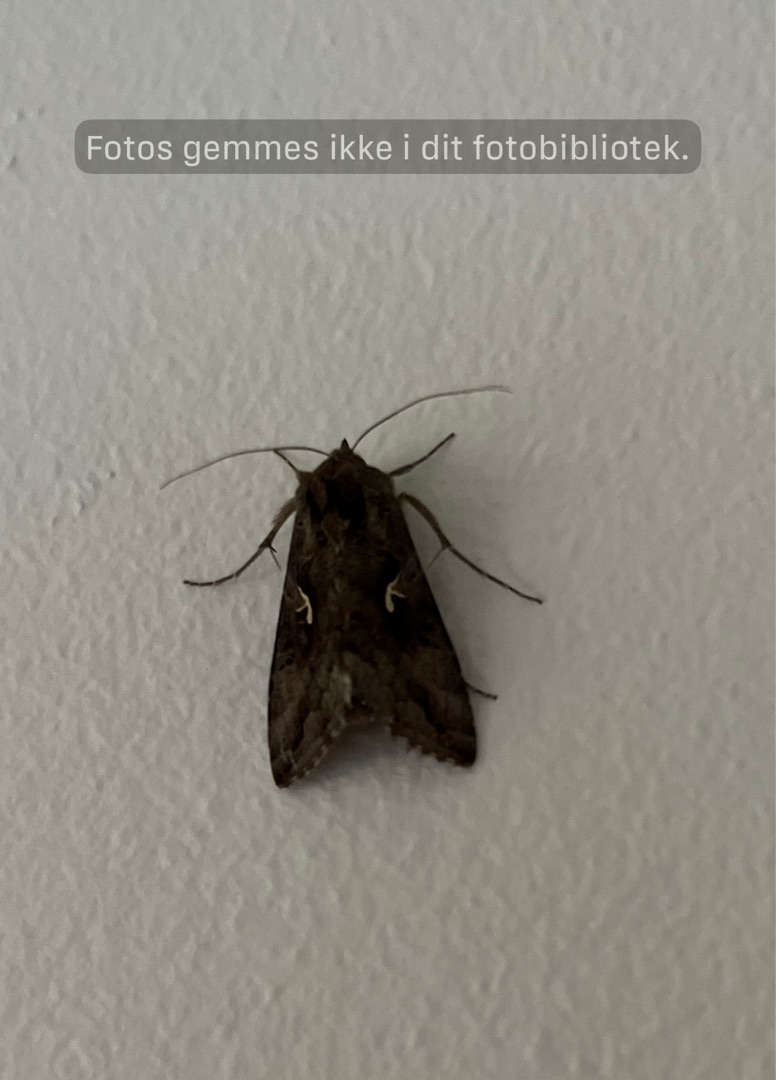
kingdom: Animalia
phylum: Arthropoda
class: Insecta
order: Lepidoptera
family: Noctuidae
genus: Autographa
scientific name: Autographa gamma
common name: Gammaugle
